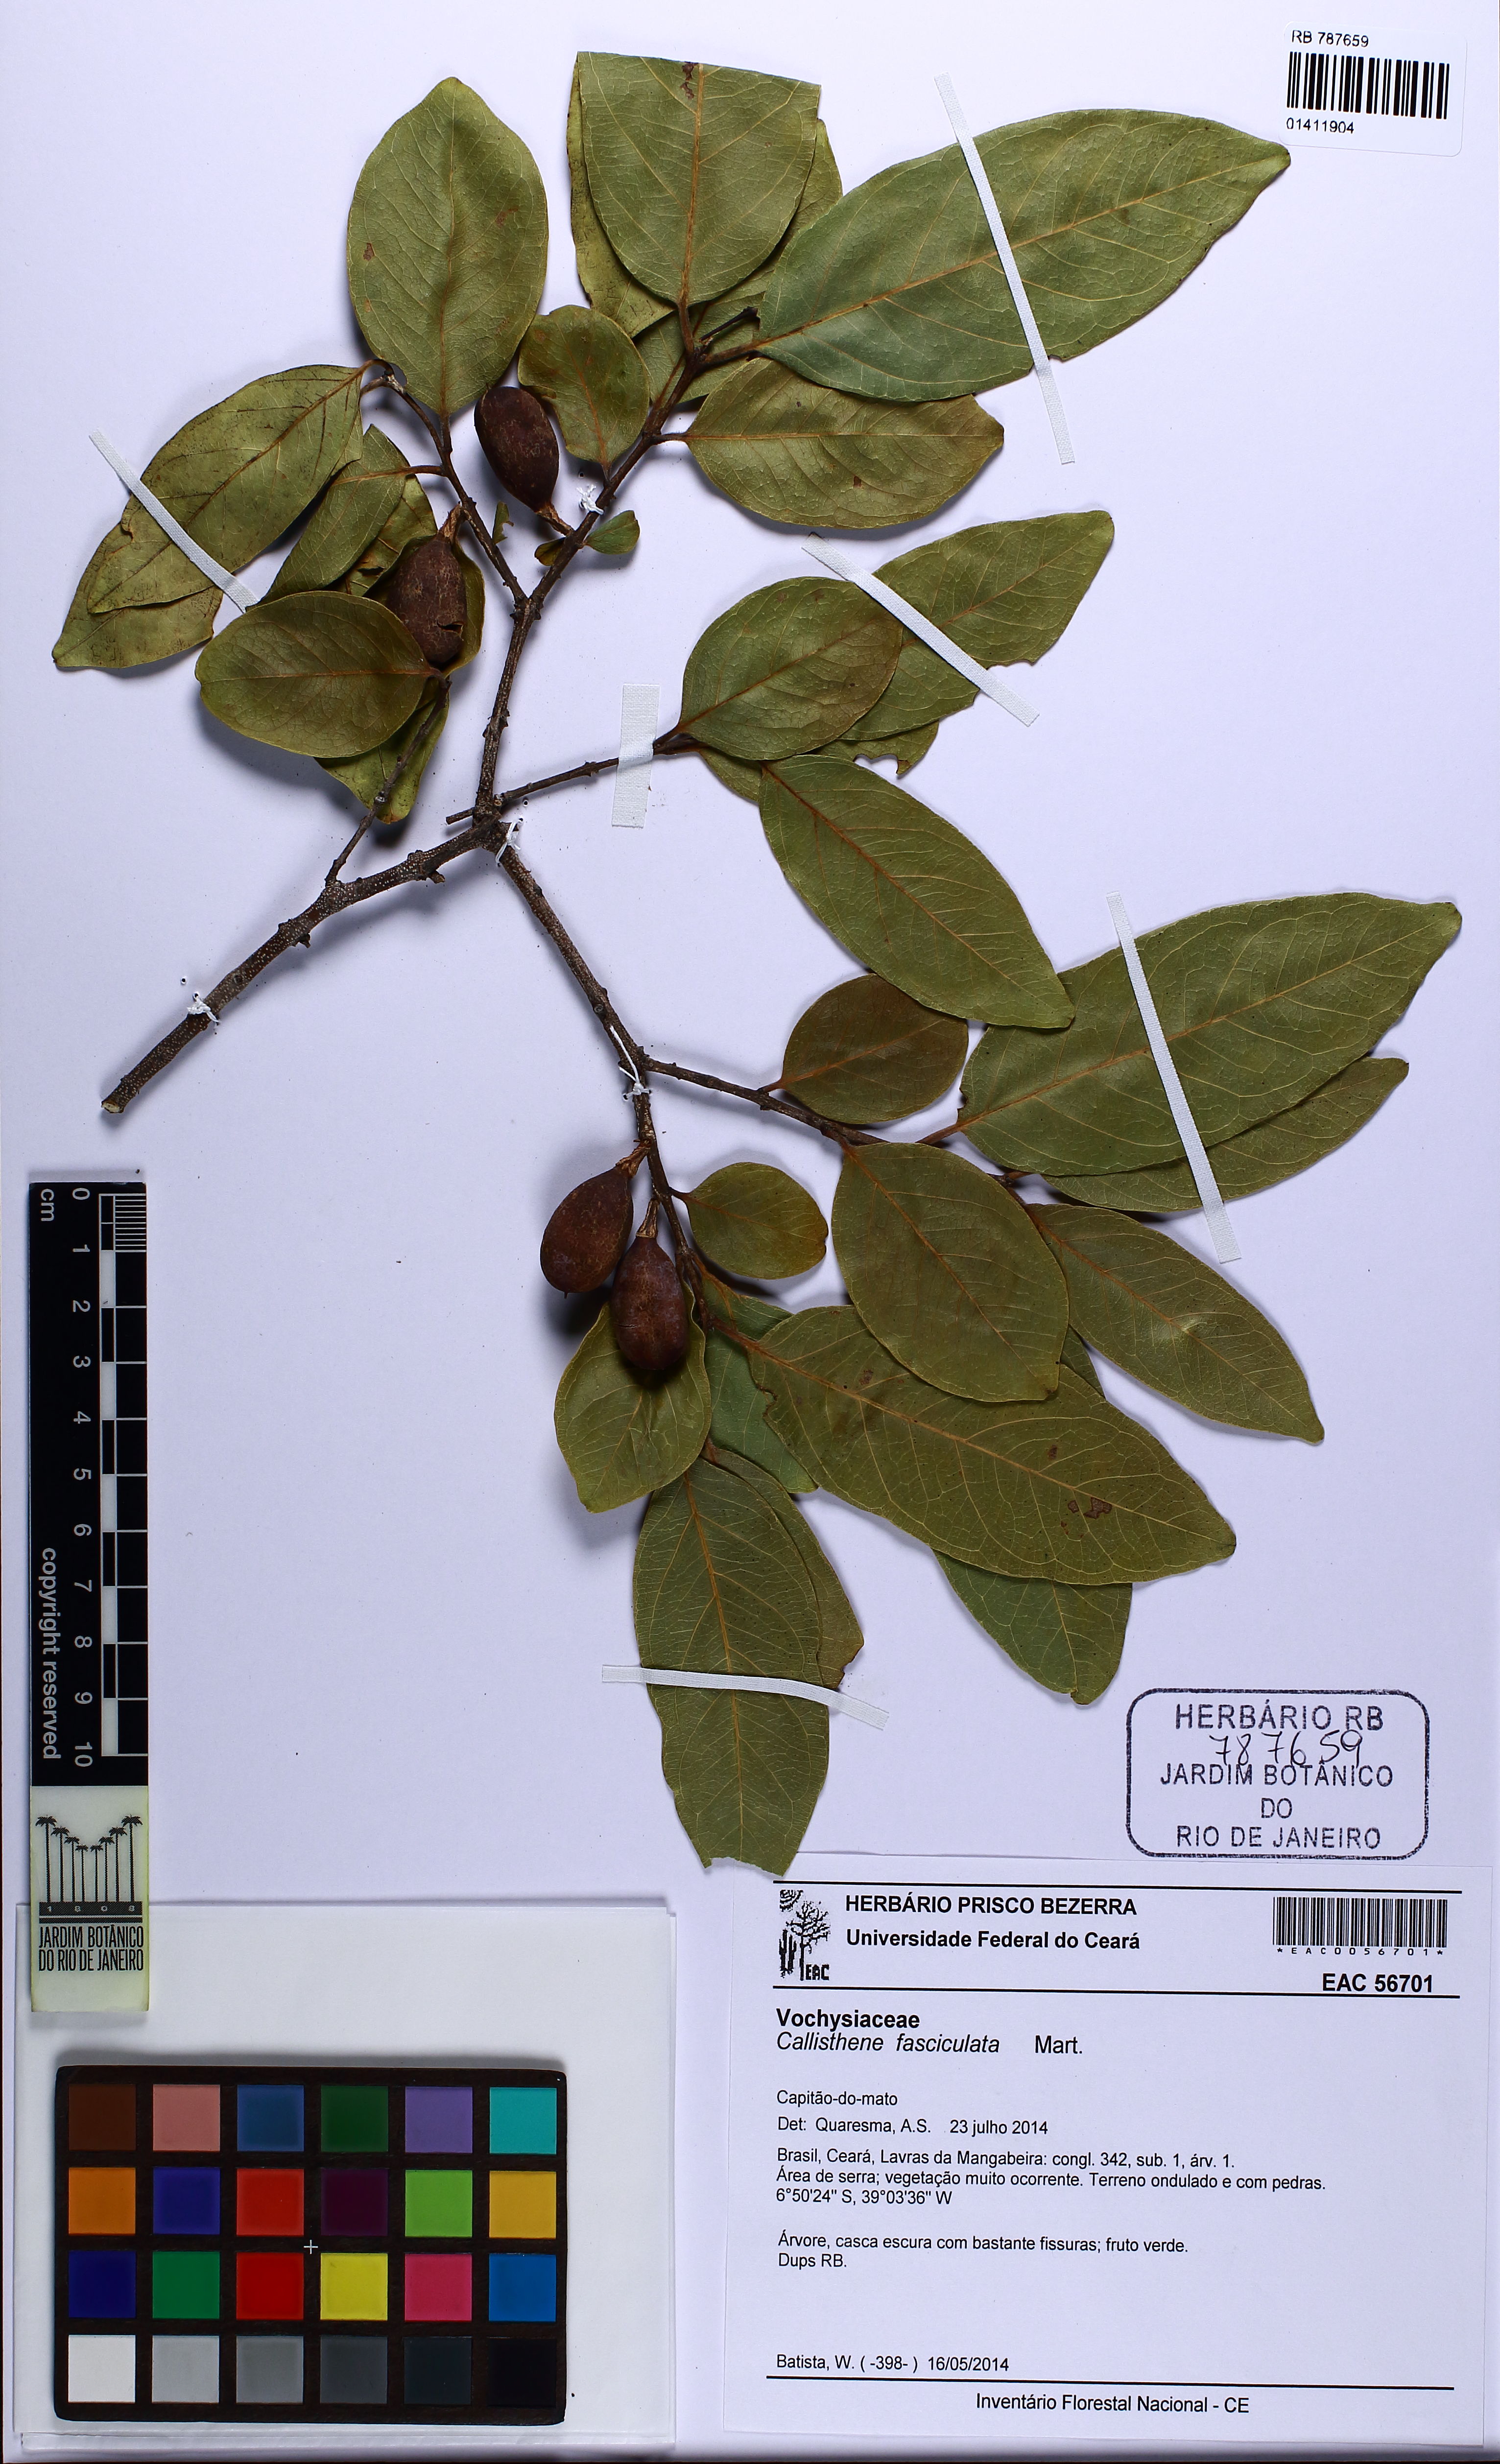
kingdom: Plantae
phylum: Tracheophyta
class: Magnoliopsida
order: Myrtales
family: Vochysiaceae
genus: Callisthene
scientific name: Callisthene fasciculata
